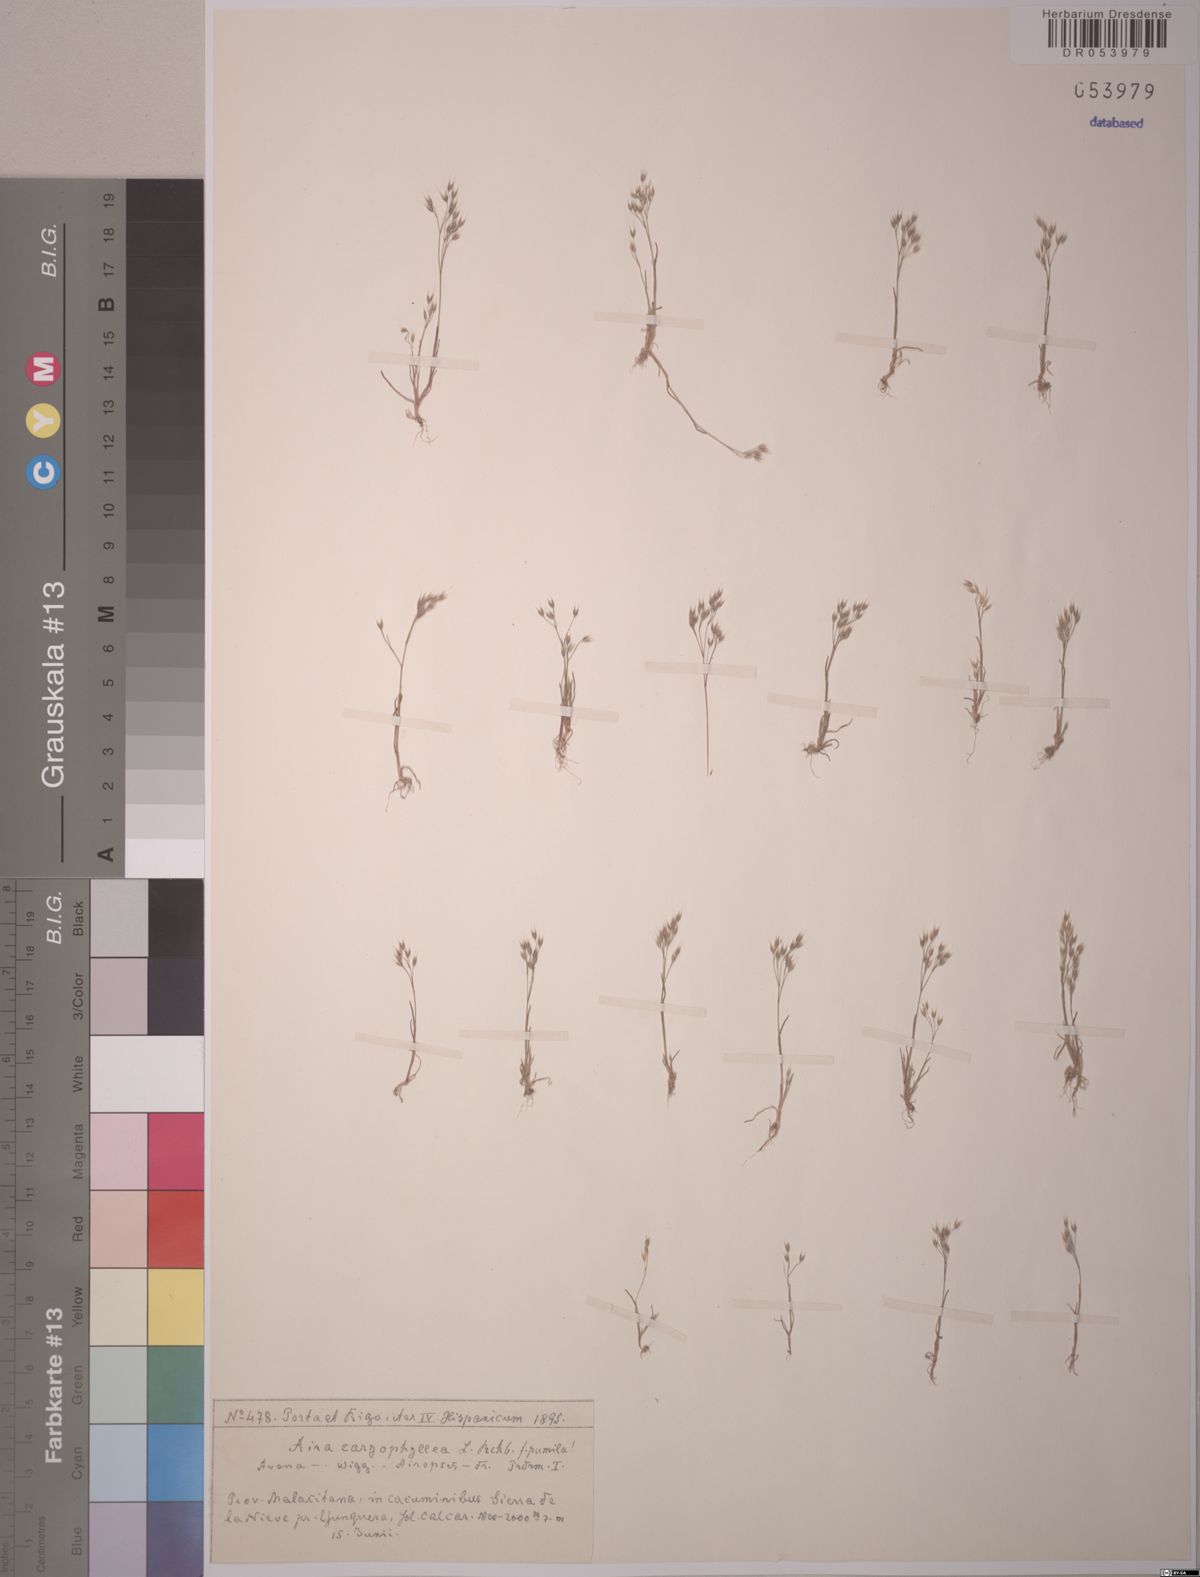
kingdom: Plantae
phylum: Tracheophyta
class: Liliopsida
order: Poales
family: Poaceae
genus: Aira
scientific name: Aira caryophyllea
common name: Silver hairgrass
